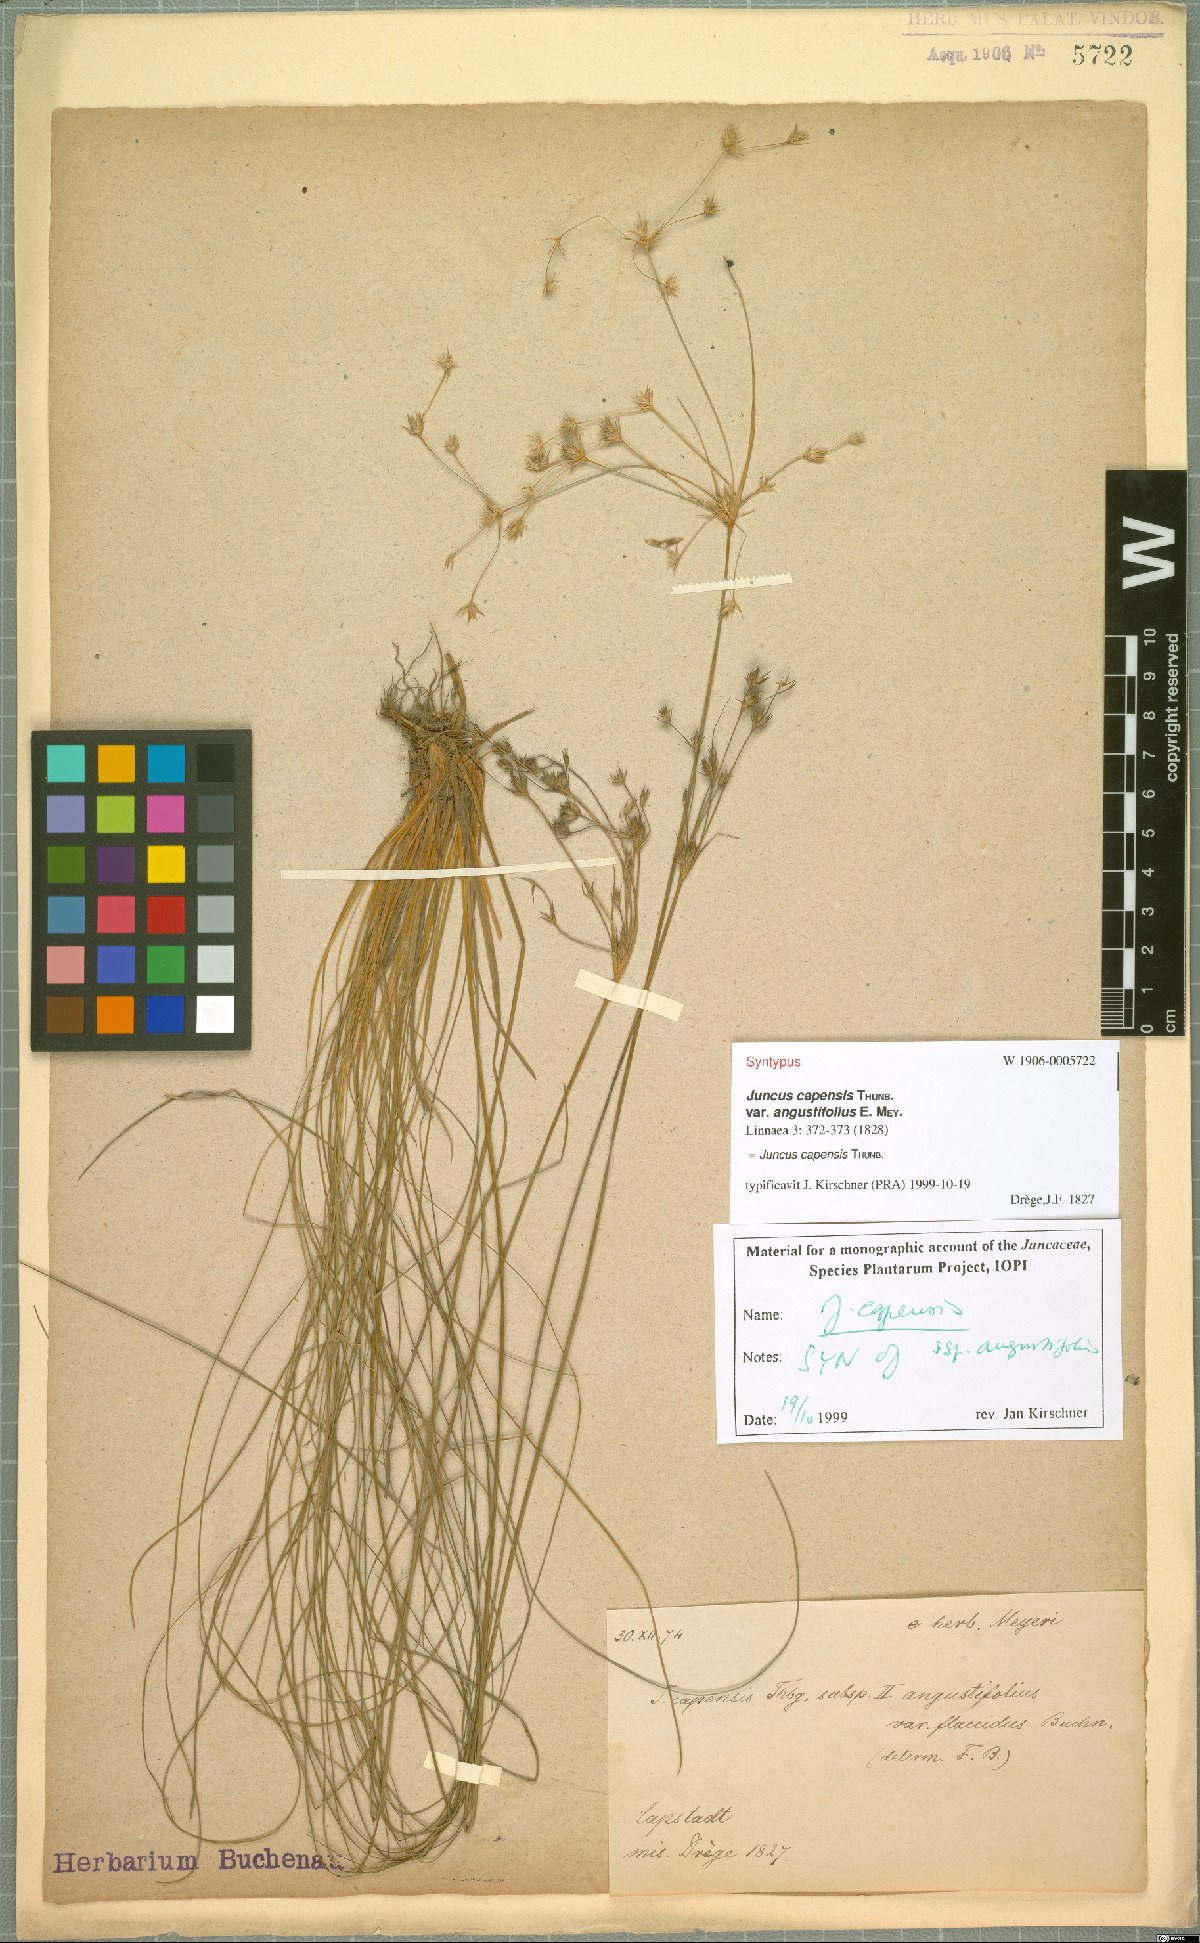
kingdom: Plantae
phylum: Tracheophyta
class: Liliopsida
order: Poales
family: Juncaceae
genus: Juncus
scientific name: Juncus capensis
